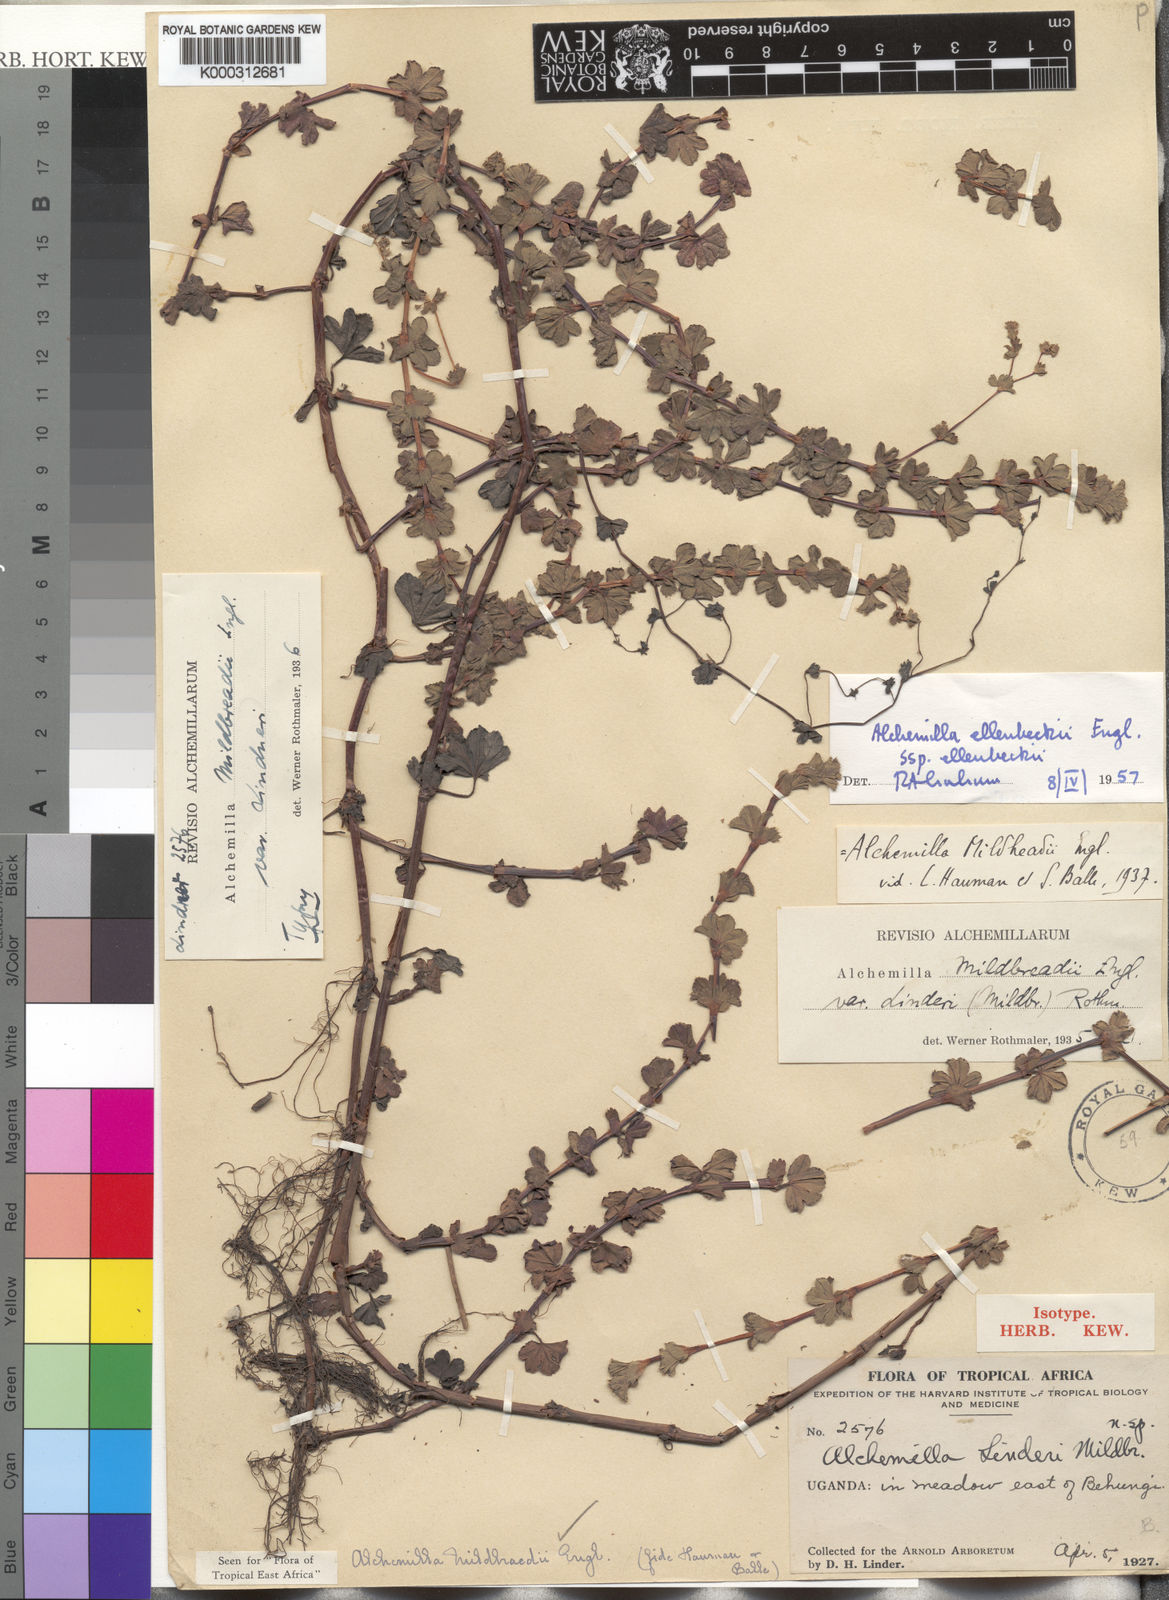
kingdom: Plantae
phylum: Tracheophyta
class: Magnoliopsida
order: Rosales
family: Rosaceae
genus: Alchemilla
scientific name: Alchemilla ellenbeckii
